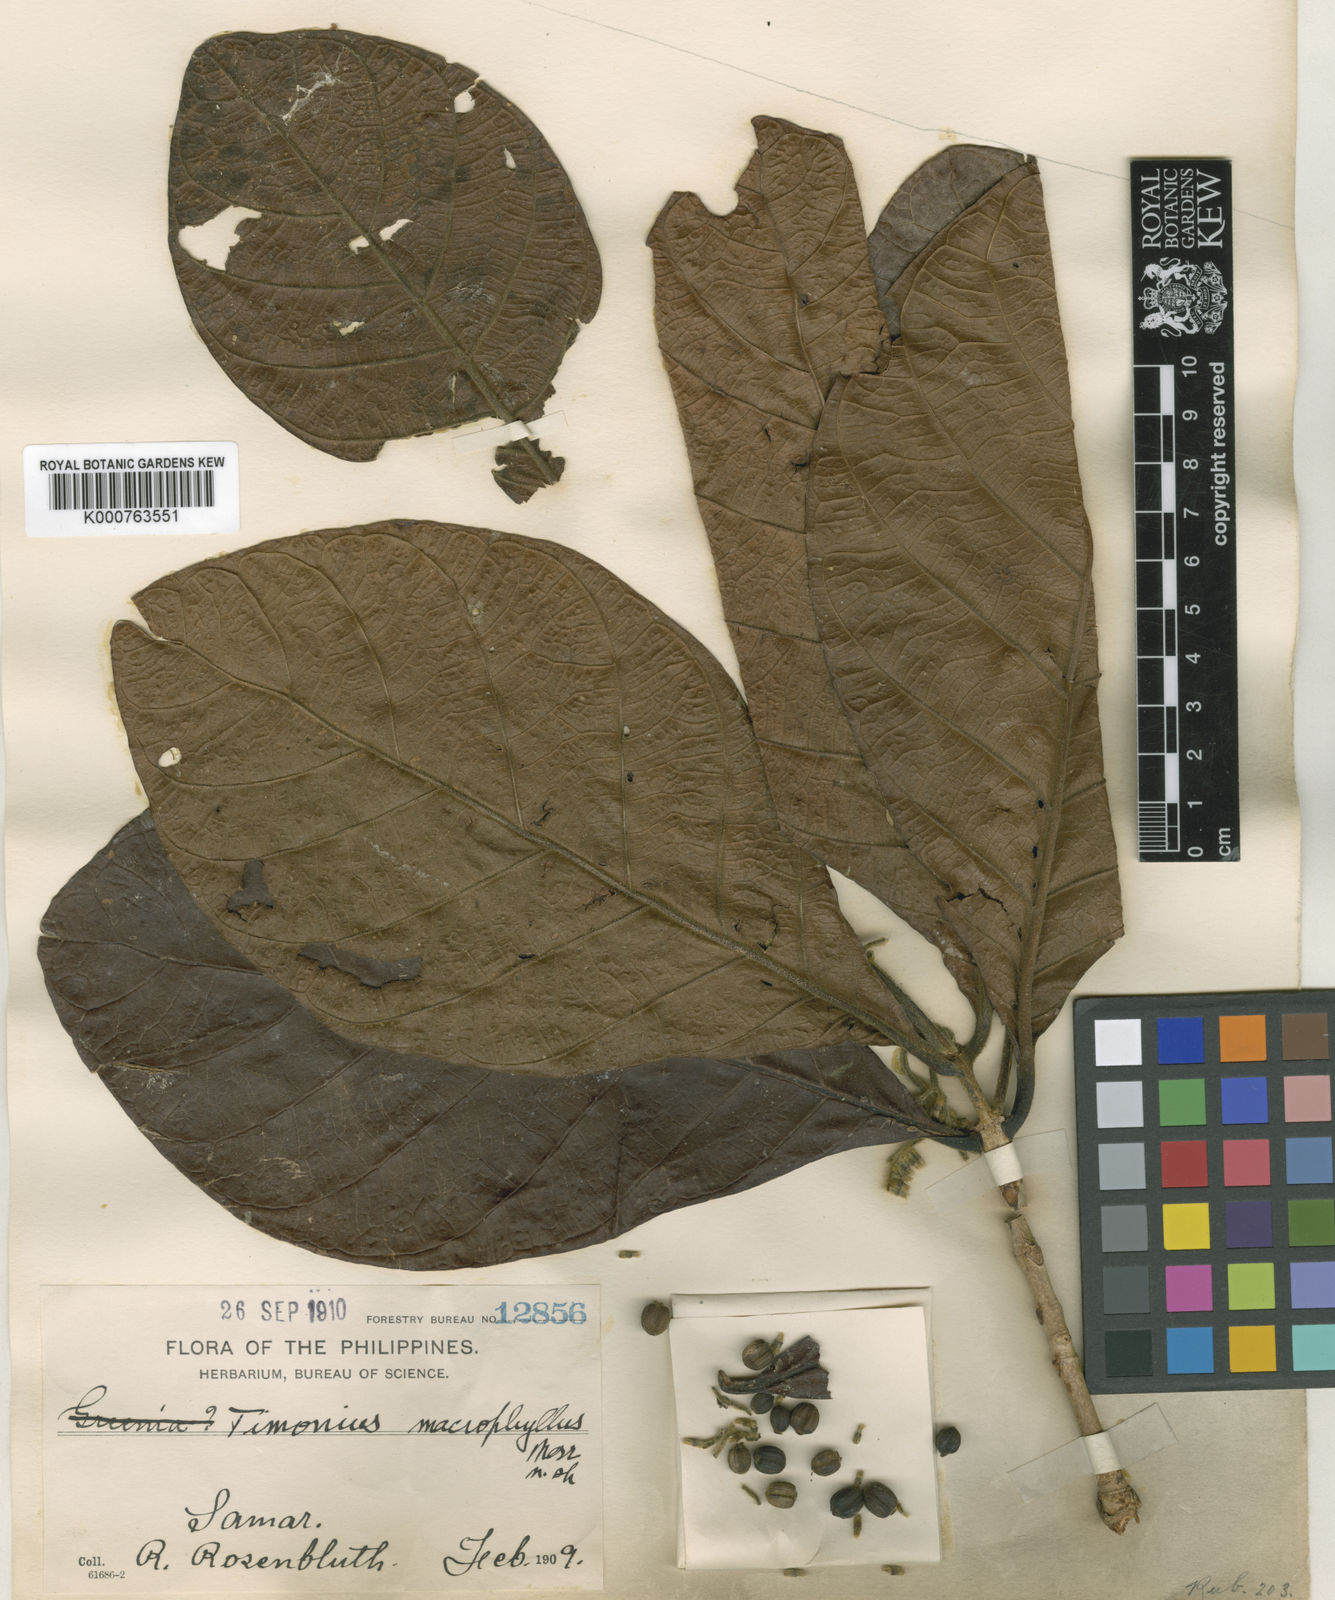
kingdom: Plantae
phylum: Tracheophyta
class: Magnoliopsida
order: Gentianales
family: Rubiaceae
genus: Timonius
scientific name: Timonius samarensis
